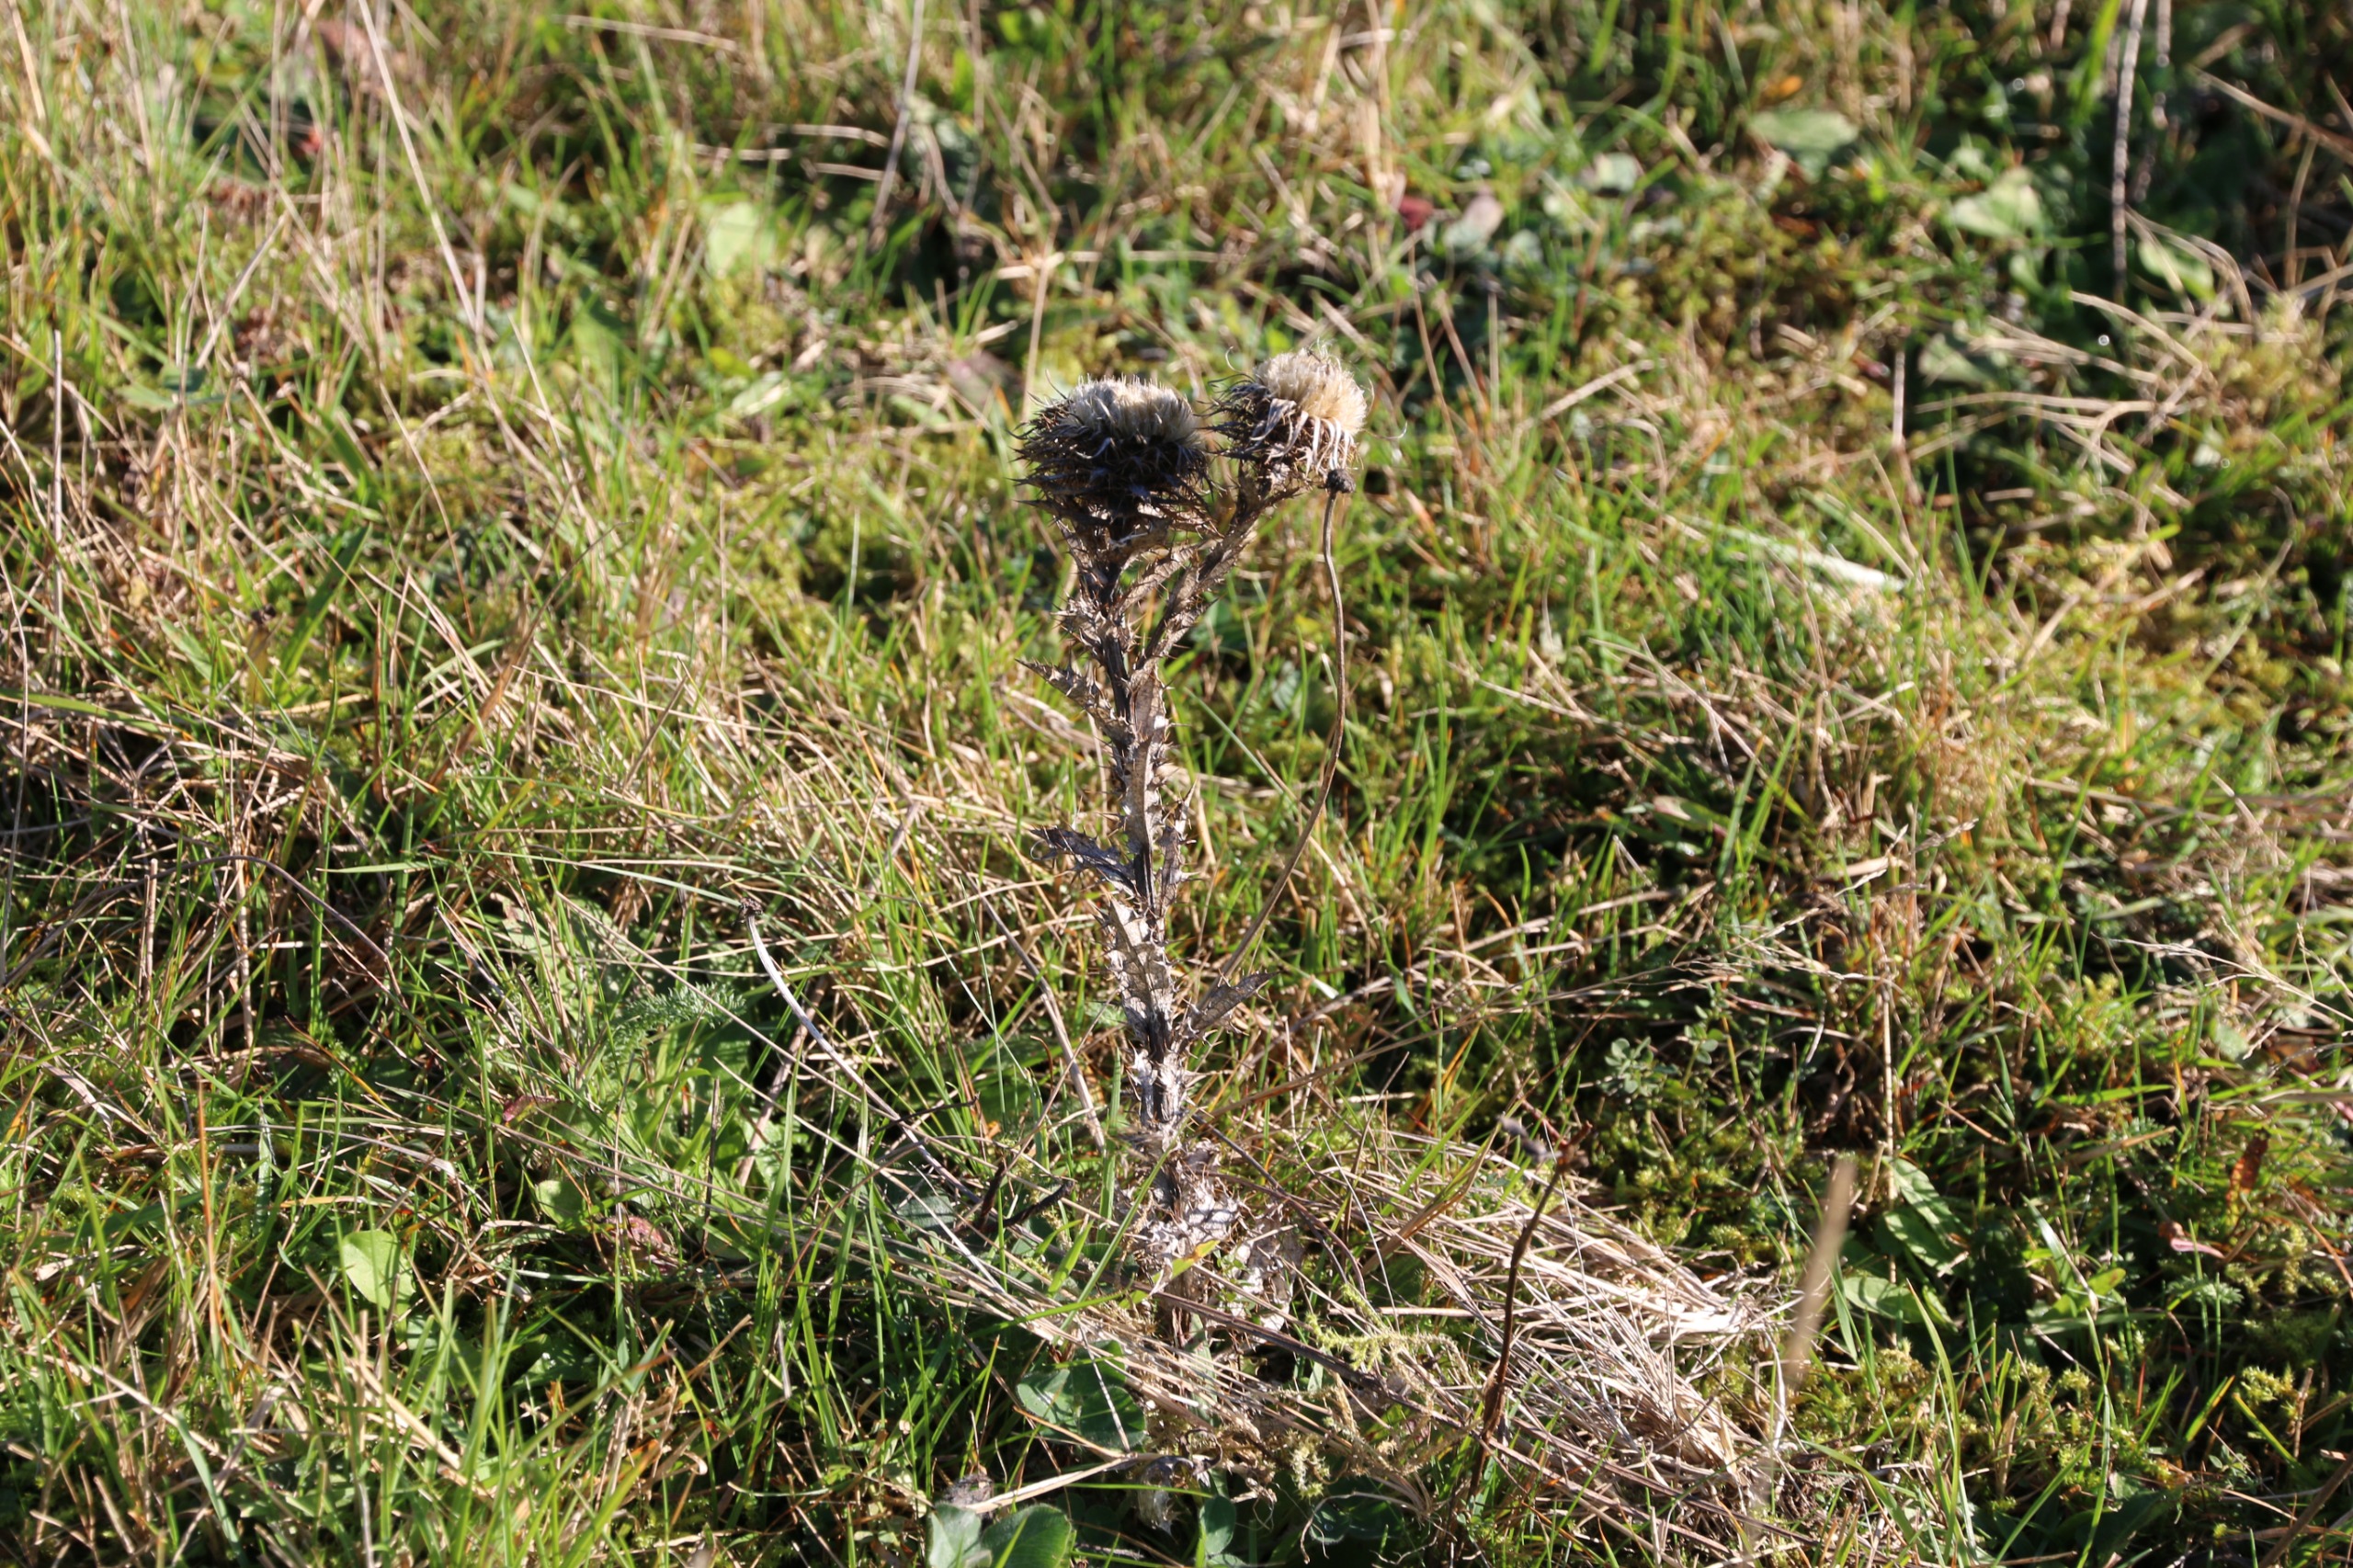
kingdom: Plantae
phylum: Tracheophyta
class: Magnoliopsida
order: Asterales
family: Asteraceae
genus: Carlina
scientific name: Carlina vulgaris
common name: Bakketidsel
